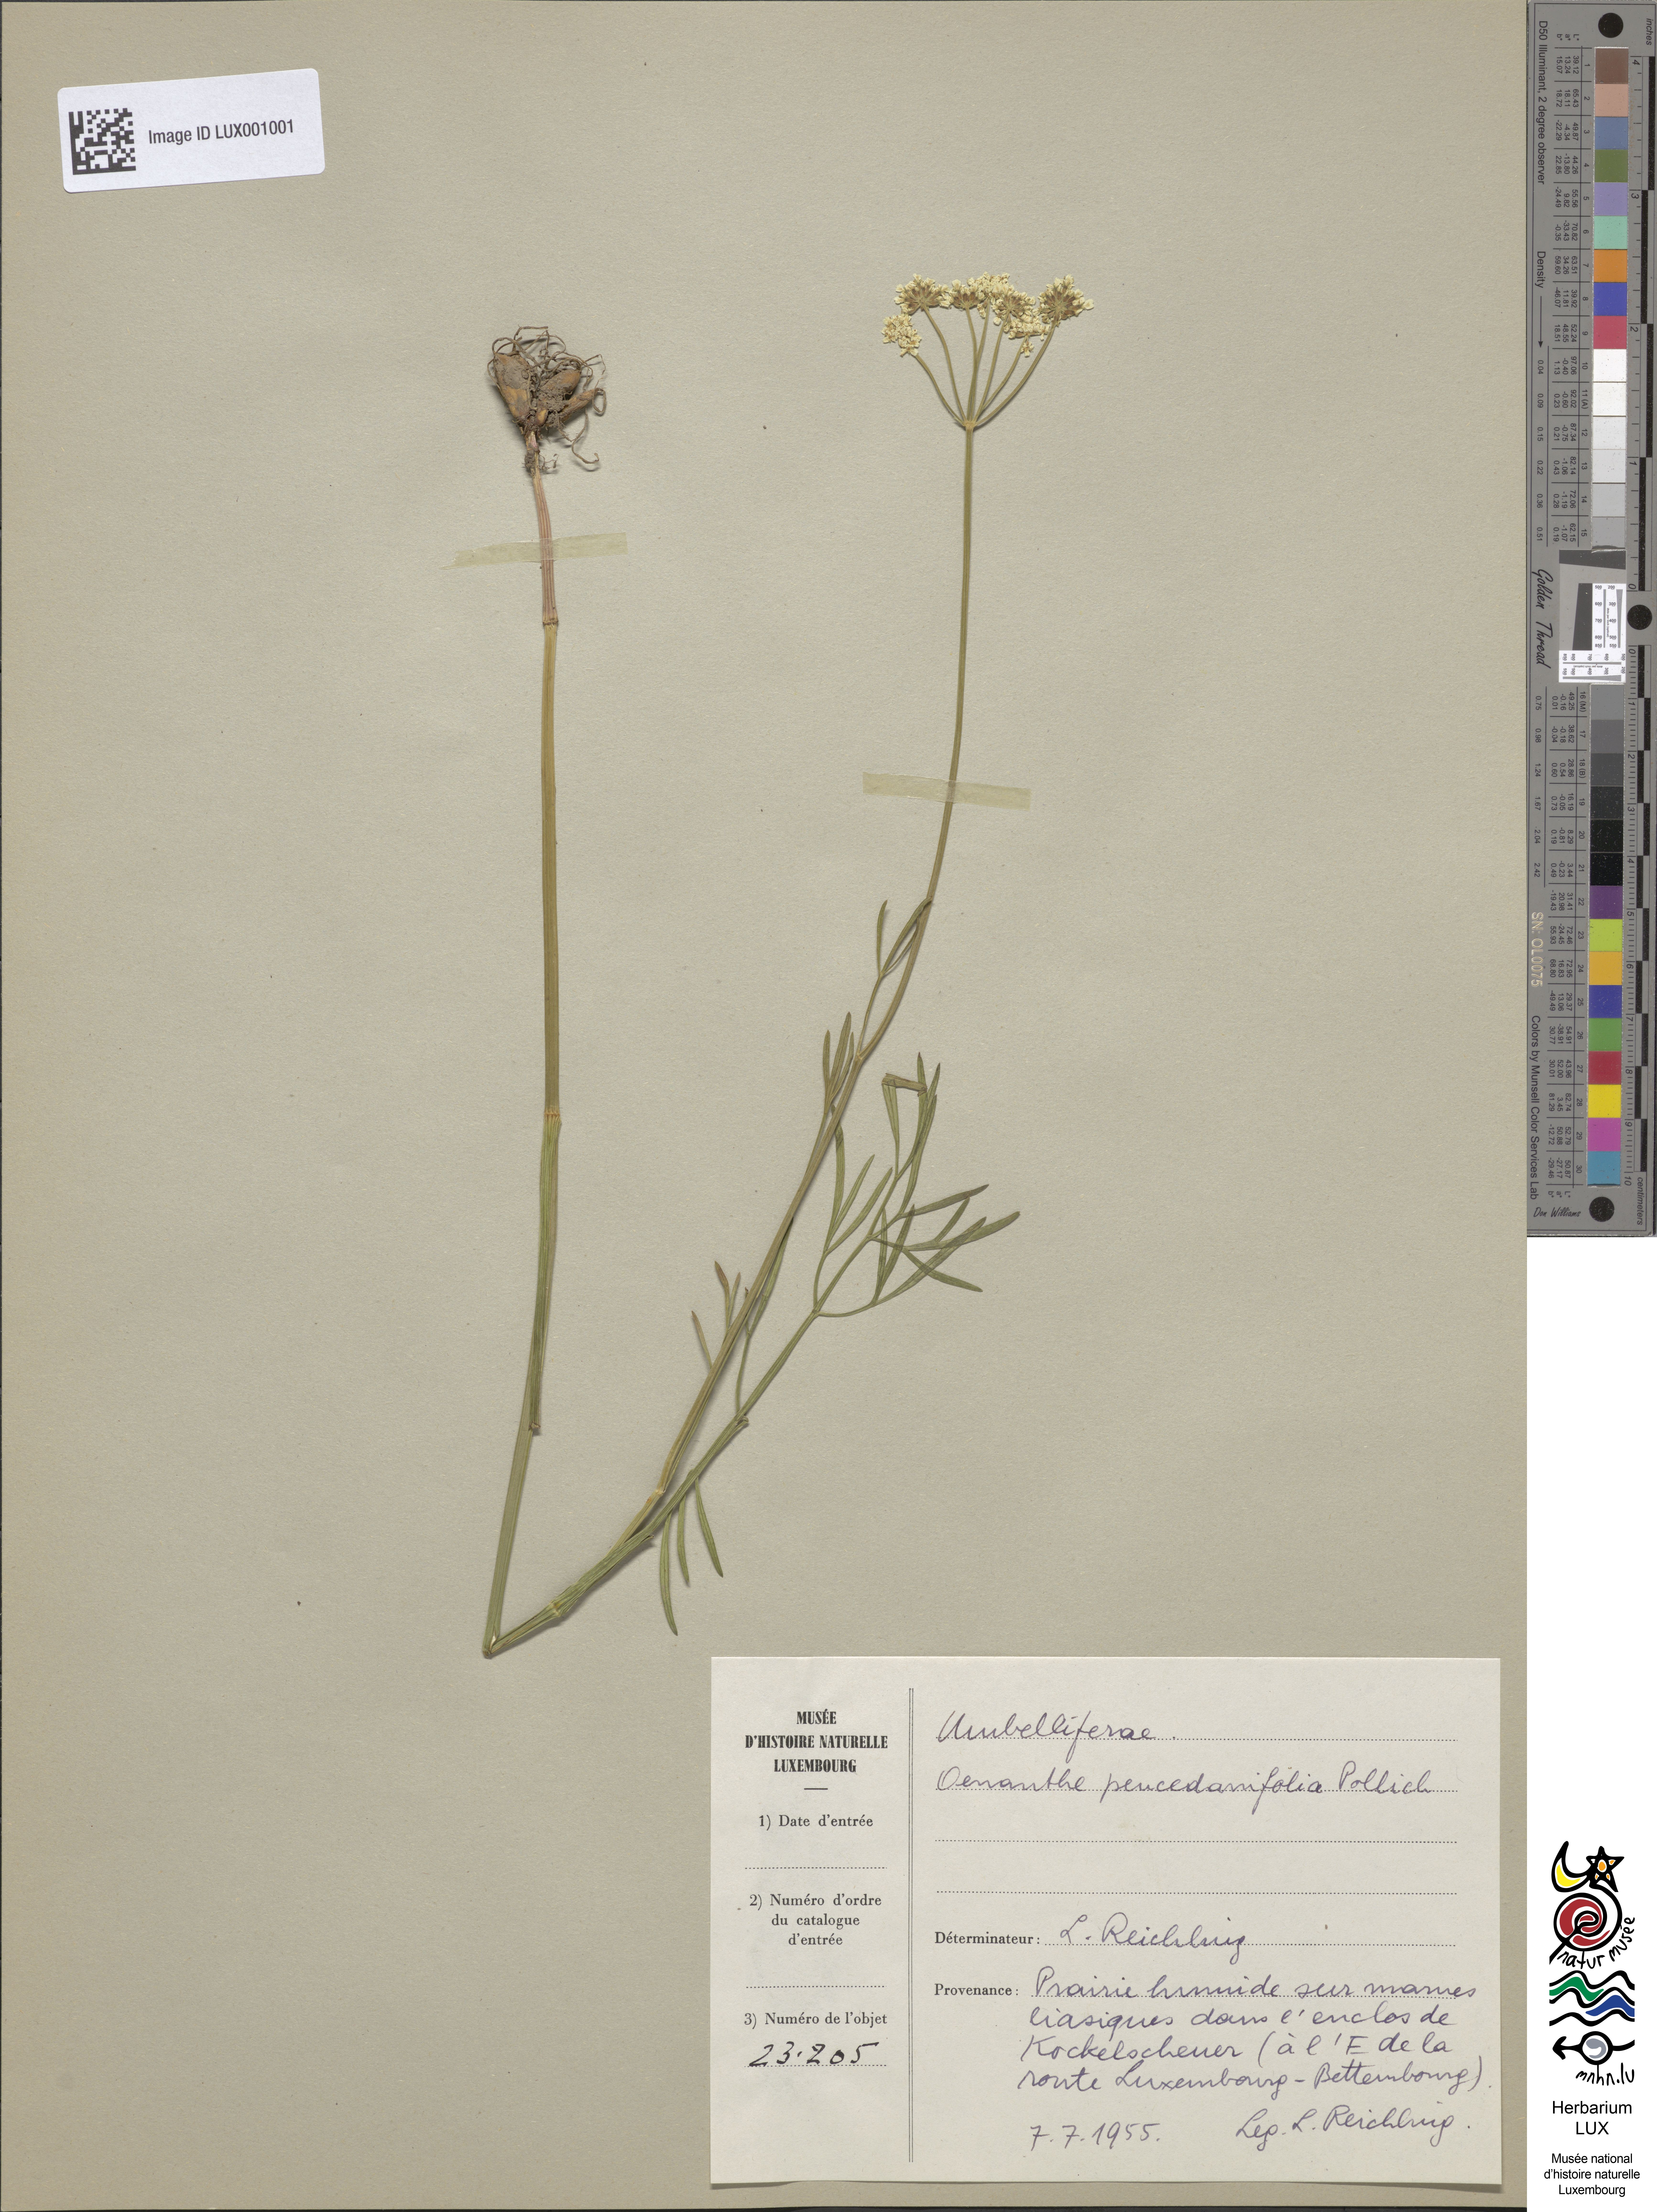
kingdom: Plantae
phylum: Tracheophyta
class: Magnoliopsida
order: Apiales
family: Apiaceae
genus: Oenanthe
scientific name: Oenanthe peucedanifolia
